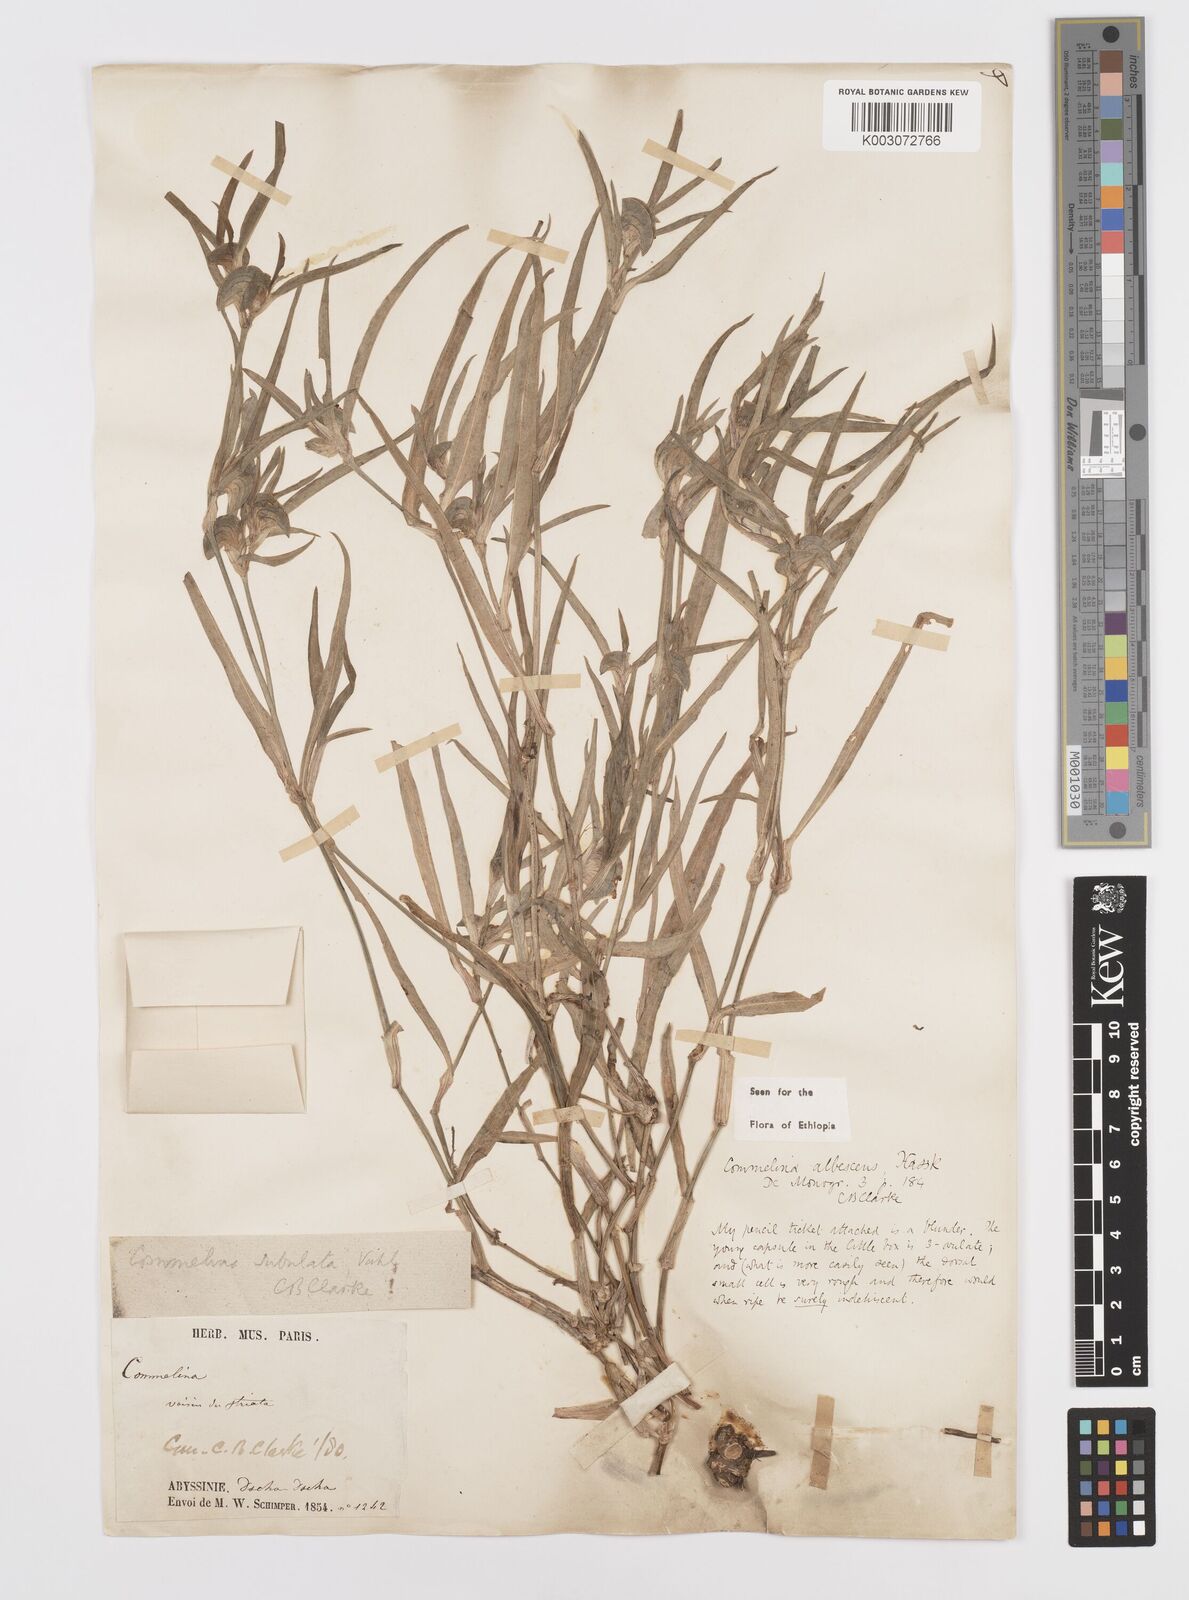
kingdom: Plantae
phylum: Tracheophyta
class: Liliopsida
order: Commelinales
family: Commelinaceae
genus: Commelina
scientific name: Commelina albescens
